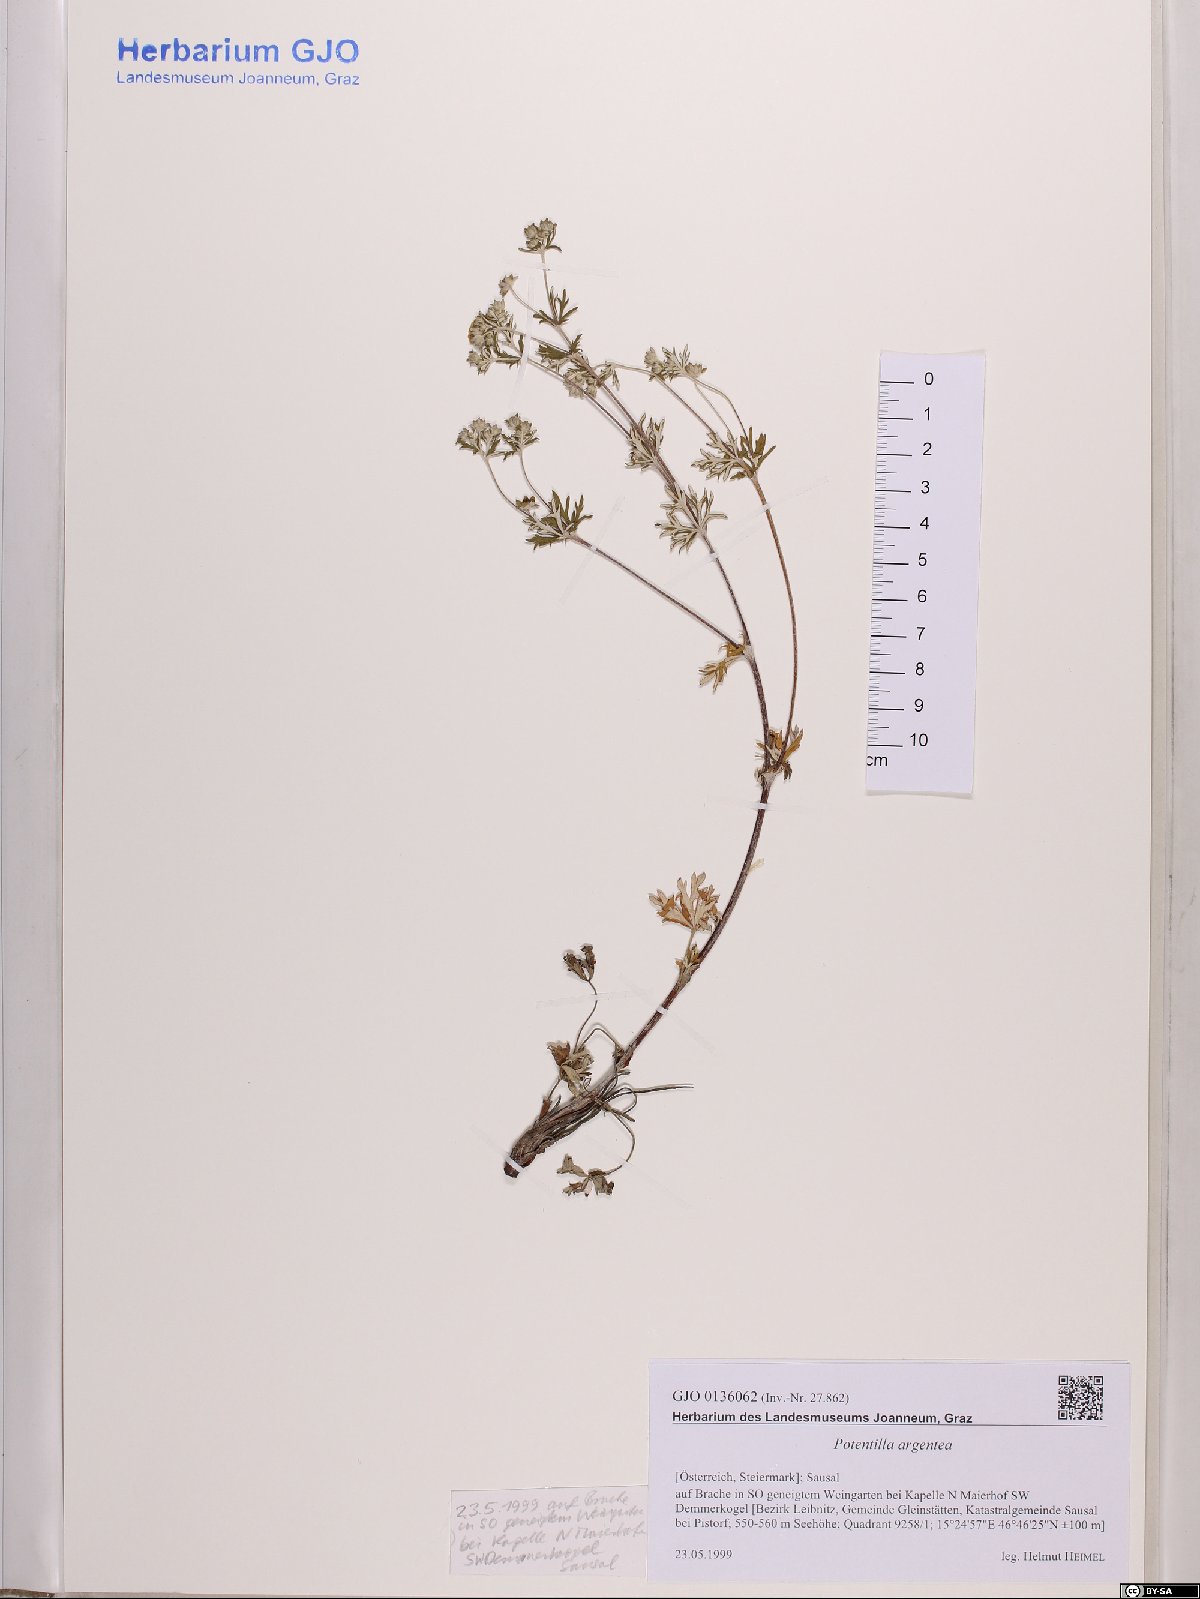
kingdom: Plantae
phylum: Tracheophyta
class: Magnoliopsida
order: Rosales
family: Rosaceae
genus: Potentilla
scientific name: Potentilla argentea
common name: Hoary cinquefoil
